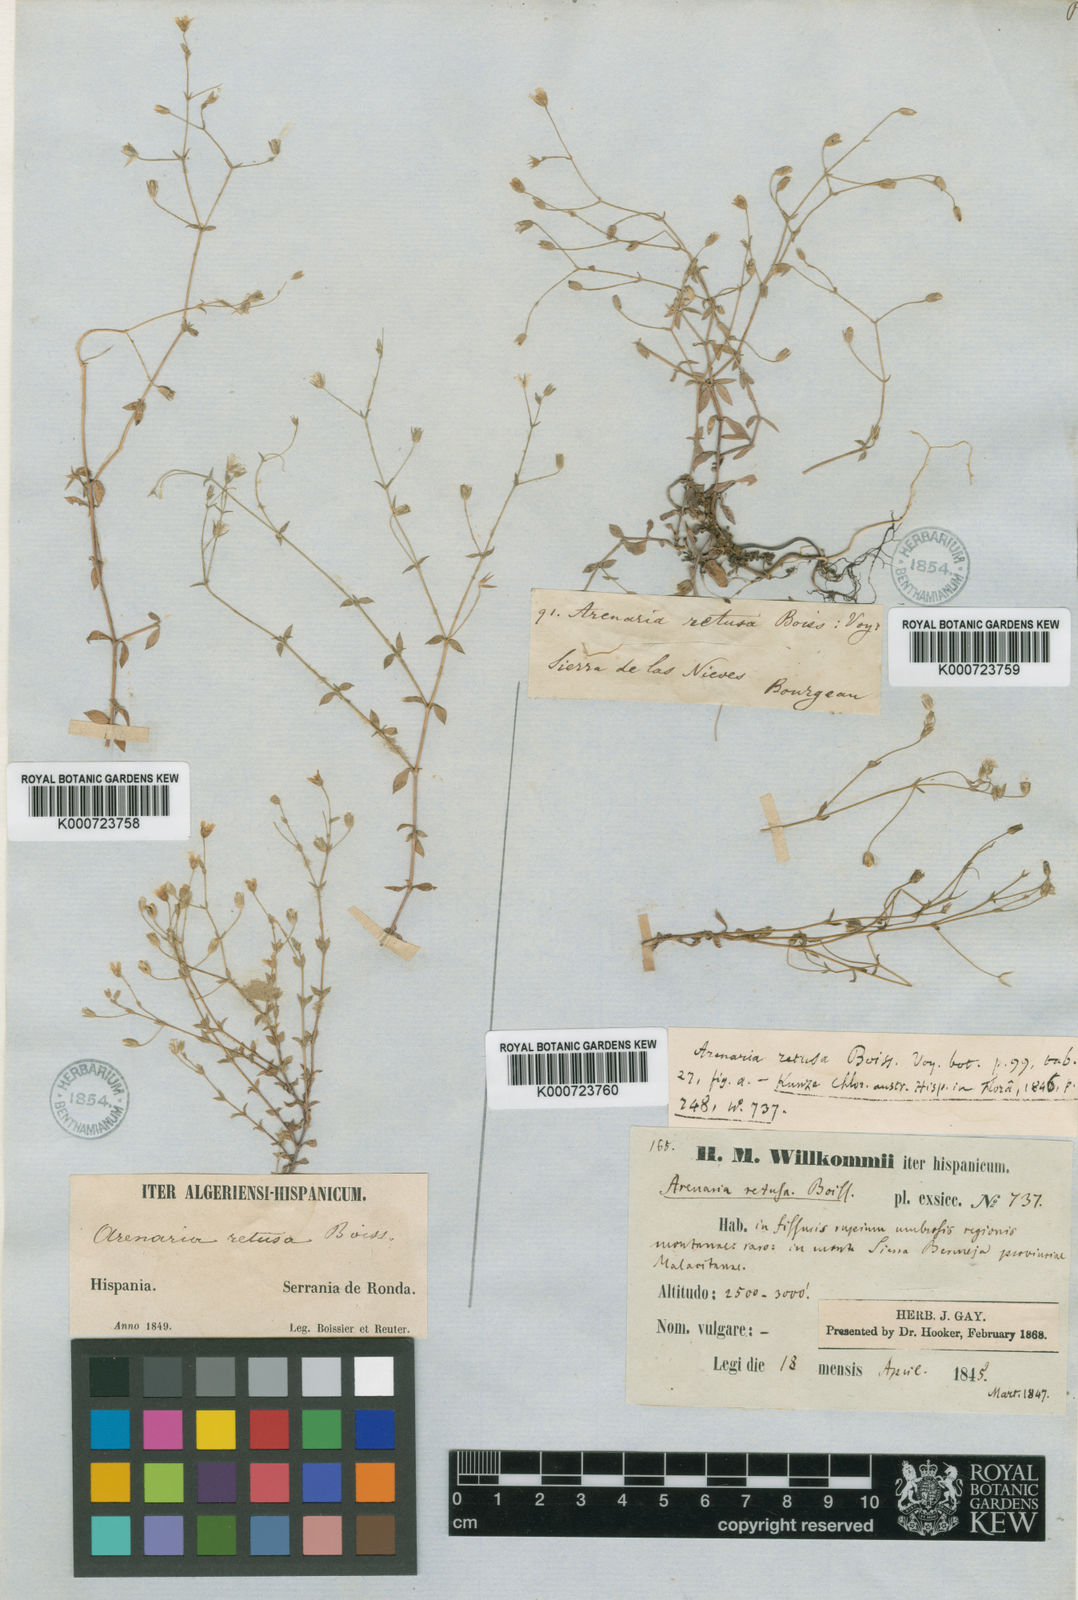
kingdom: Plantae
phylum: Tracheophyta
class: Magnoliopsida
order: Caryophyllales
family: Caryophyllaceae
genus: Arenaria
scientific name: Arenaria retusa
